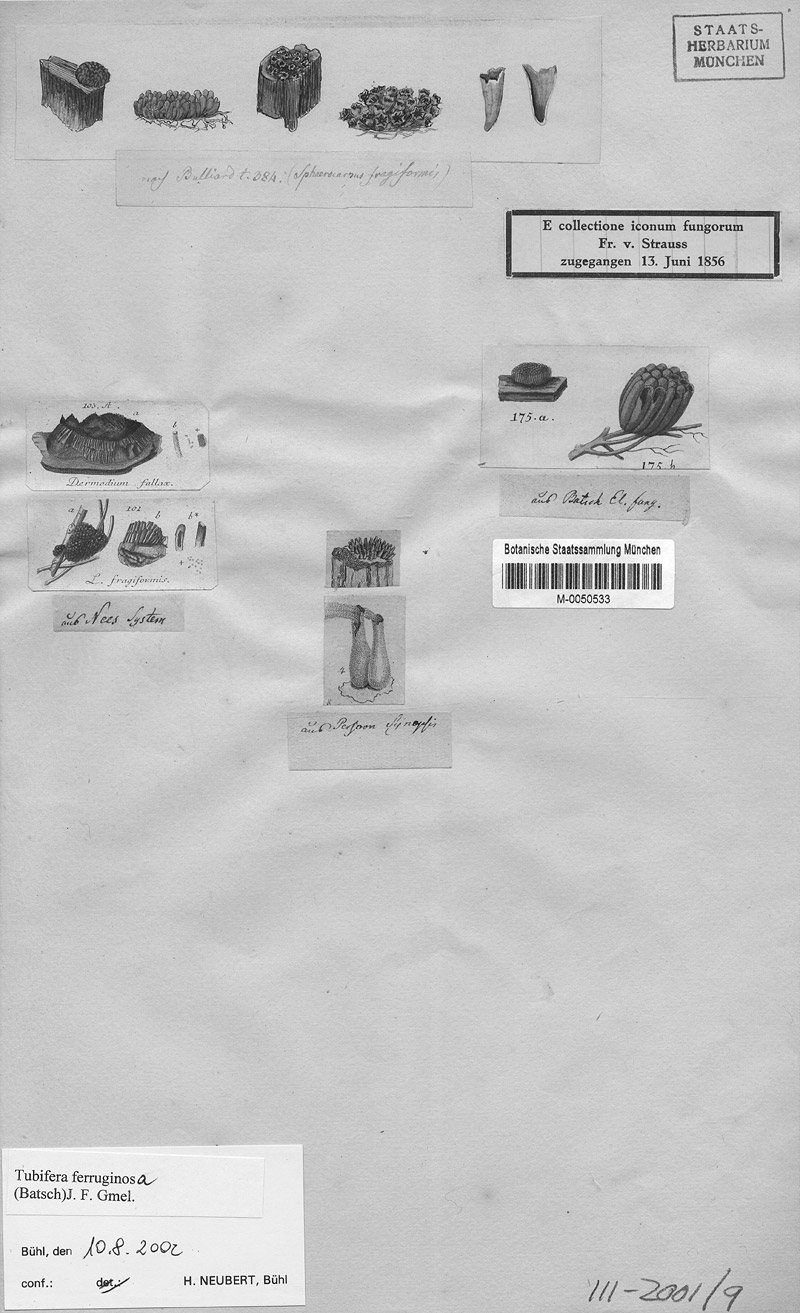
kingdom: Protozoa
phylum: Mycetozoa
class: Myxomycetes
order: Cribrariales
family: Tubiferaceae
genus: Tubifera
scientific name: Tubifera ferruginosa
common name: Red raspberry slime mold
